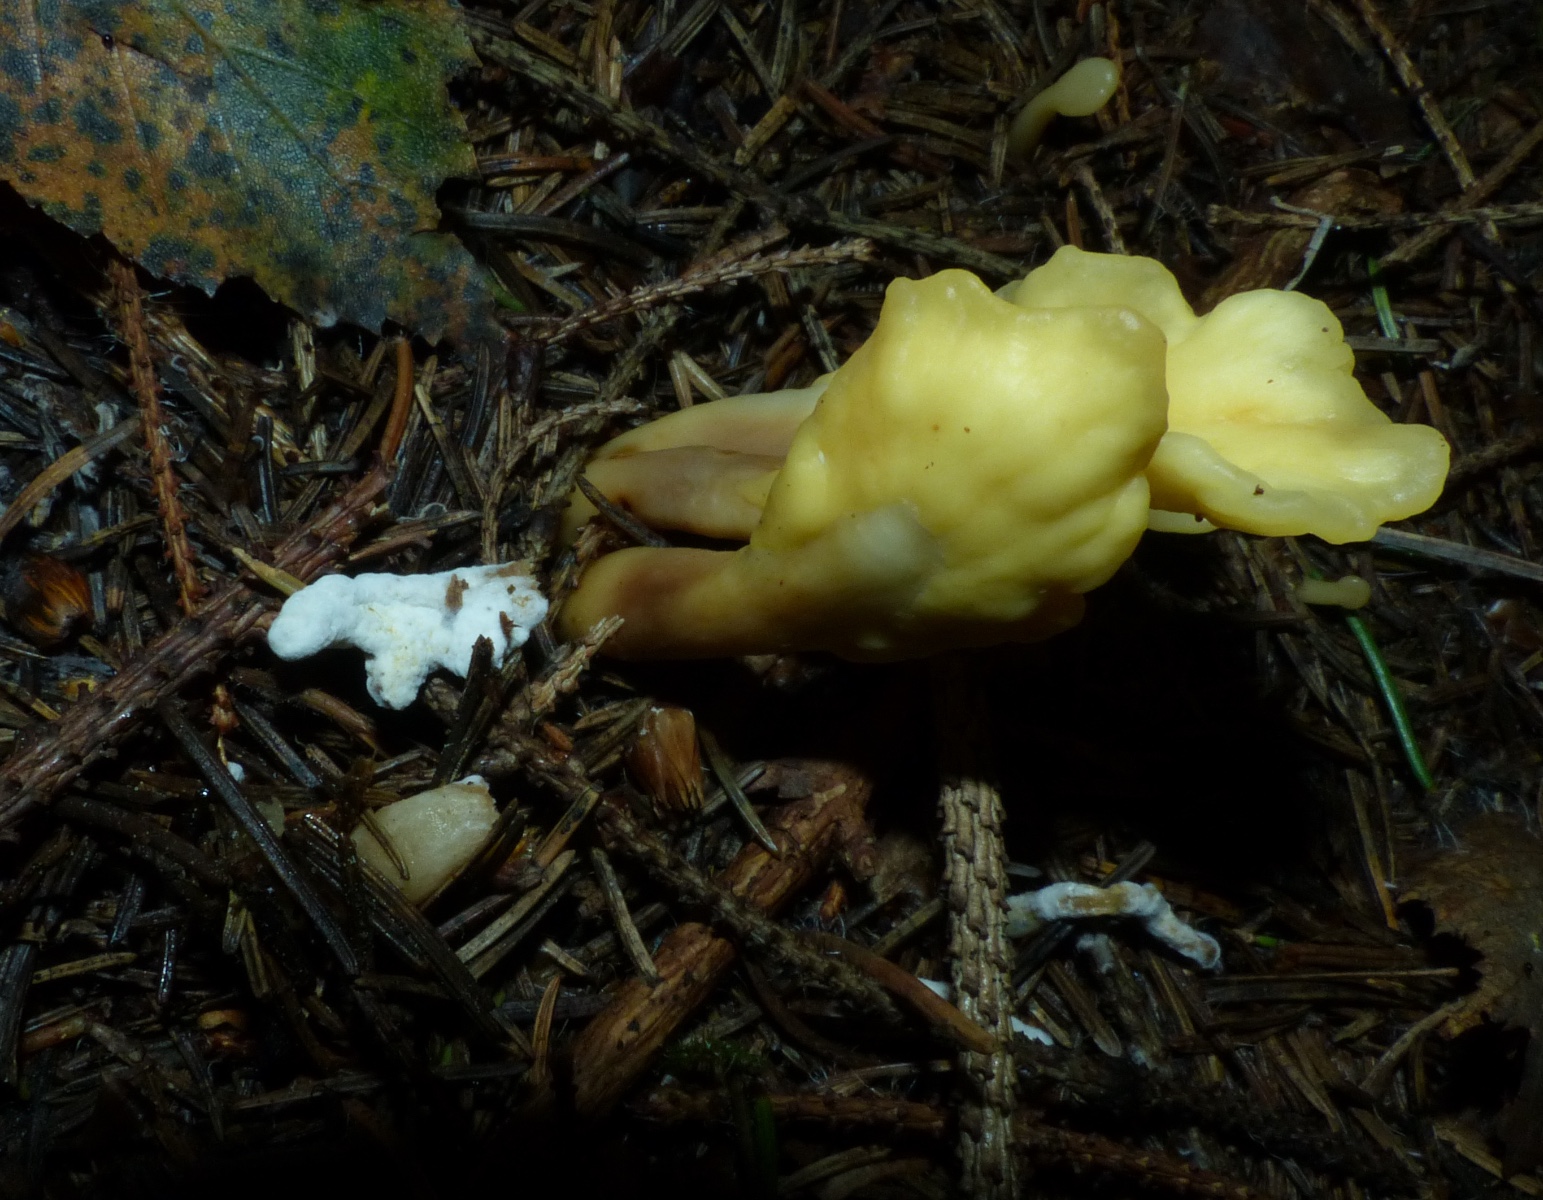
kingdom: Fungi
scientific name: Fungi
